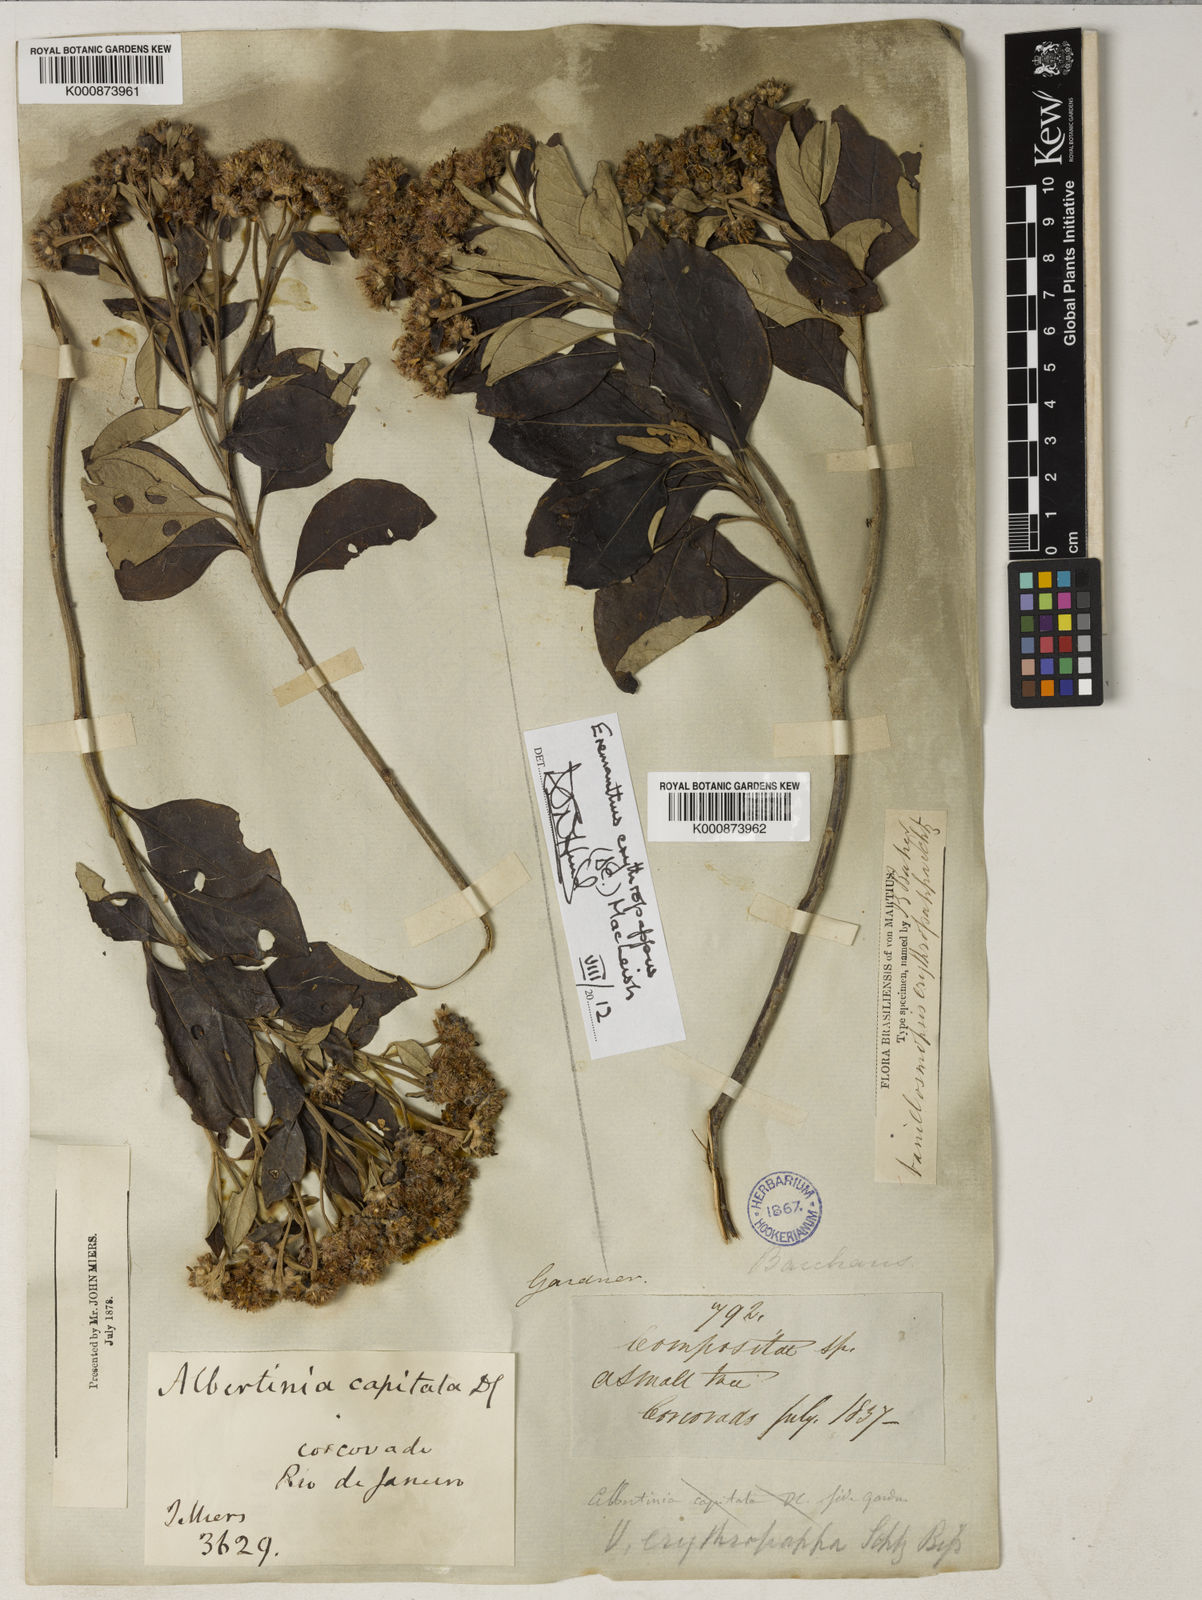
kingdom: Plantae
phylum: Tracheophyta
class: Magnoliopsida
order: Asterales
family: Asteraceae
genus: Eremanthus
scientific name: Eremanthus erythropappus
